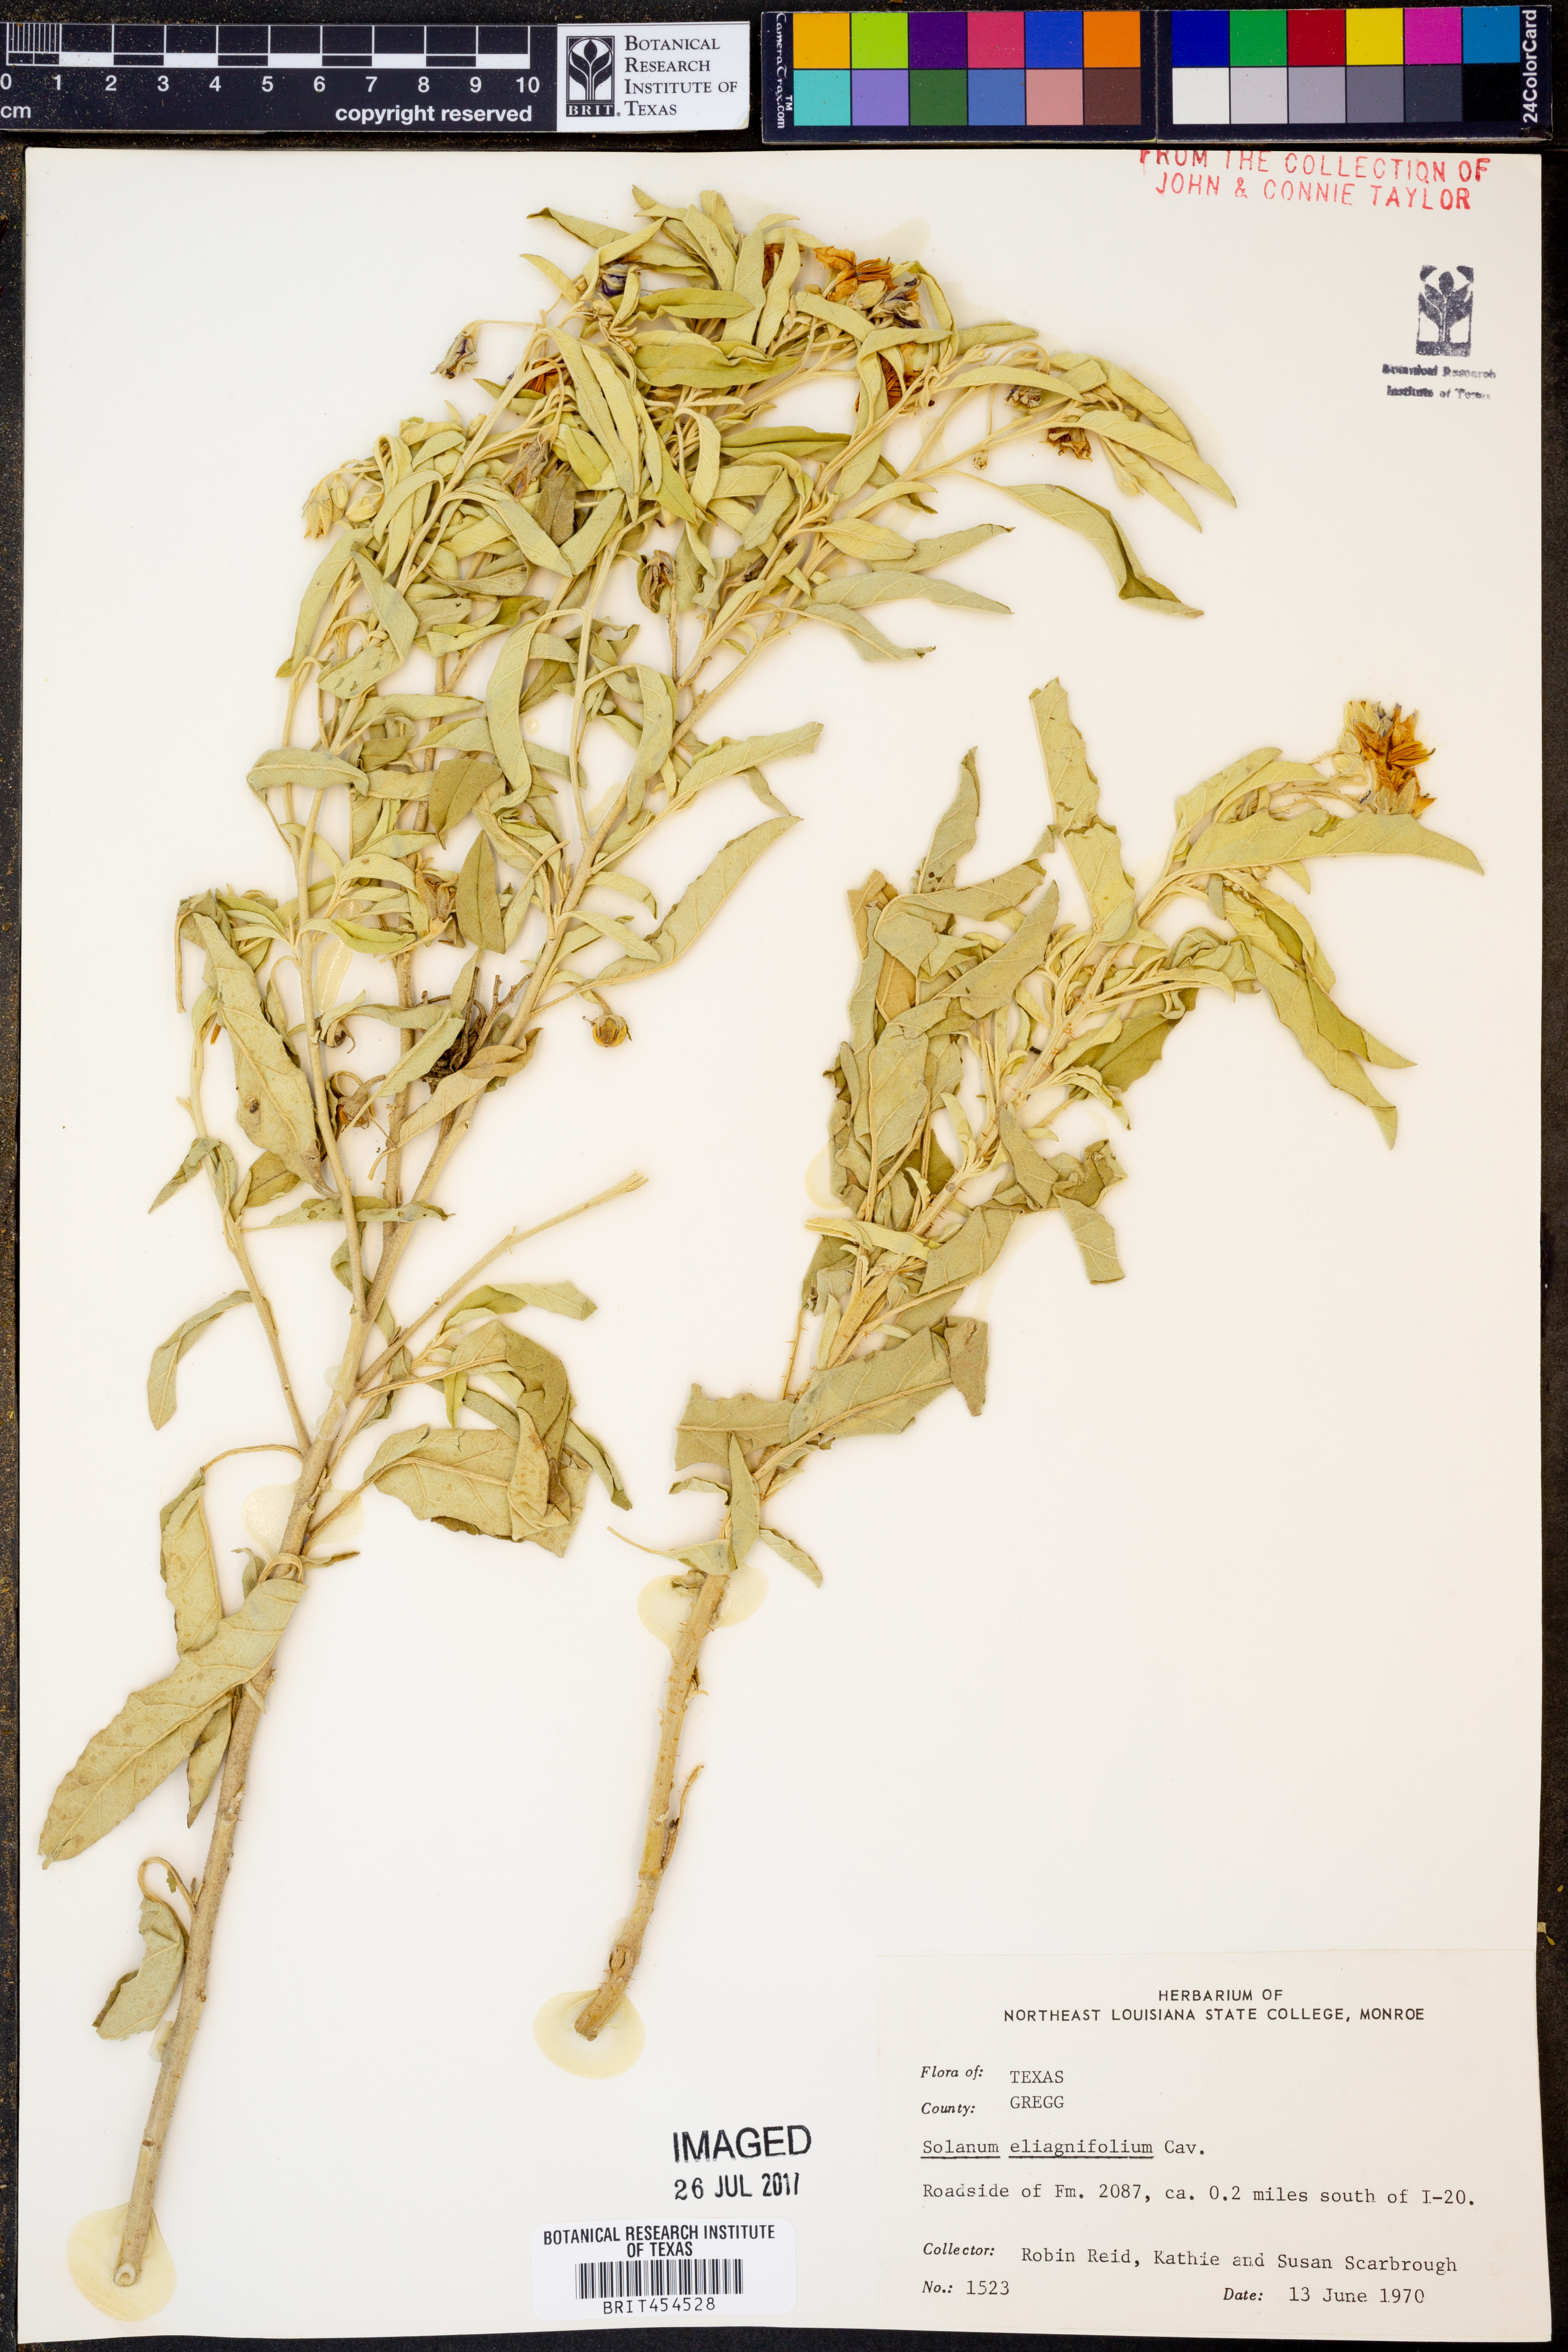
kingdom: Plantae
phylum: Tracheophyta
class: Magnoliopsida
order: Solanales
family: Solanaceae
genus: Solanum
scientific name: Solanum elaeagnifolium
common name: Silverleaf nightshade
